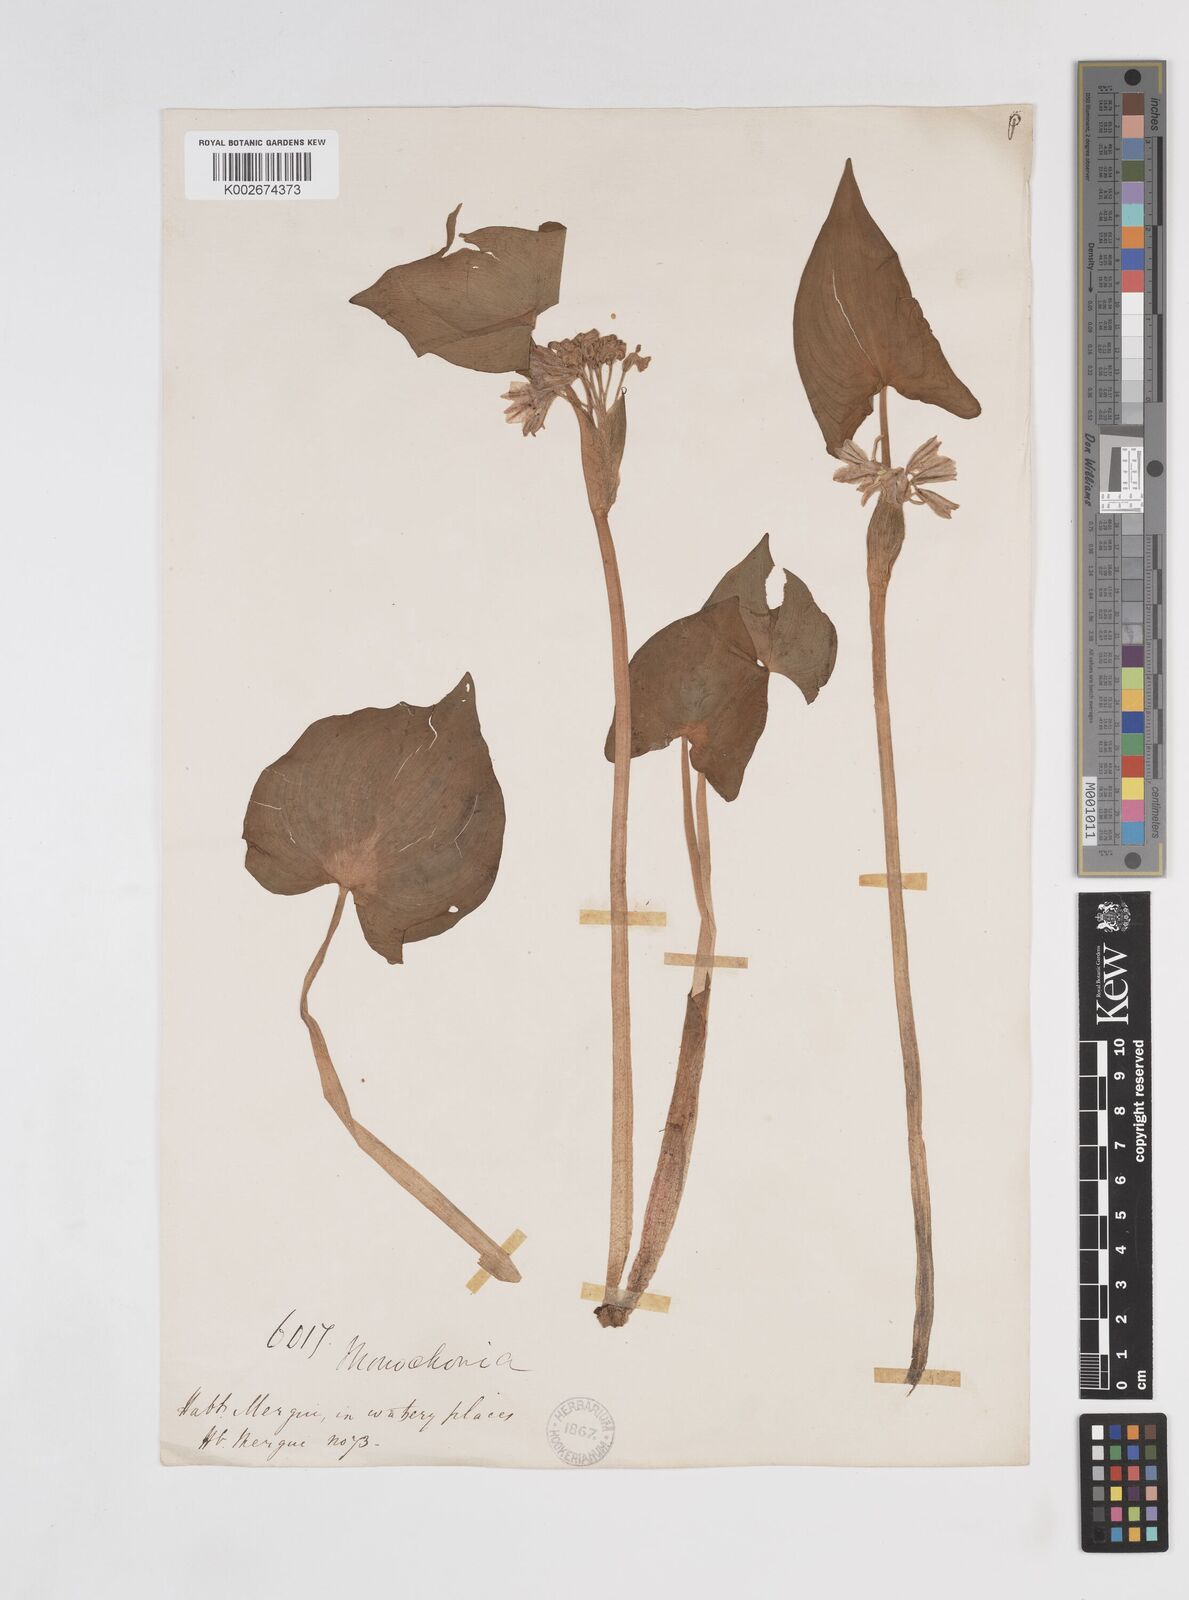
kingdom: Plantae
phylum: Tracheophyta
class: Liliopsida
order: Commelinales
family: Pontederiaceae
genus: Pontederia
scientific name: Pontederia hastata
